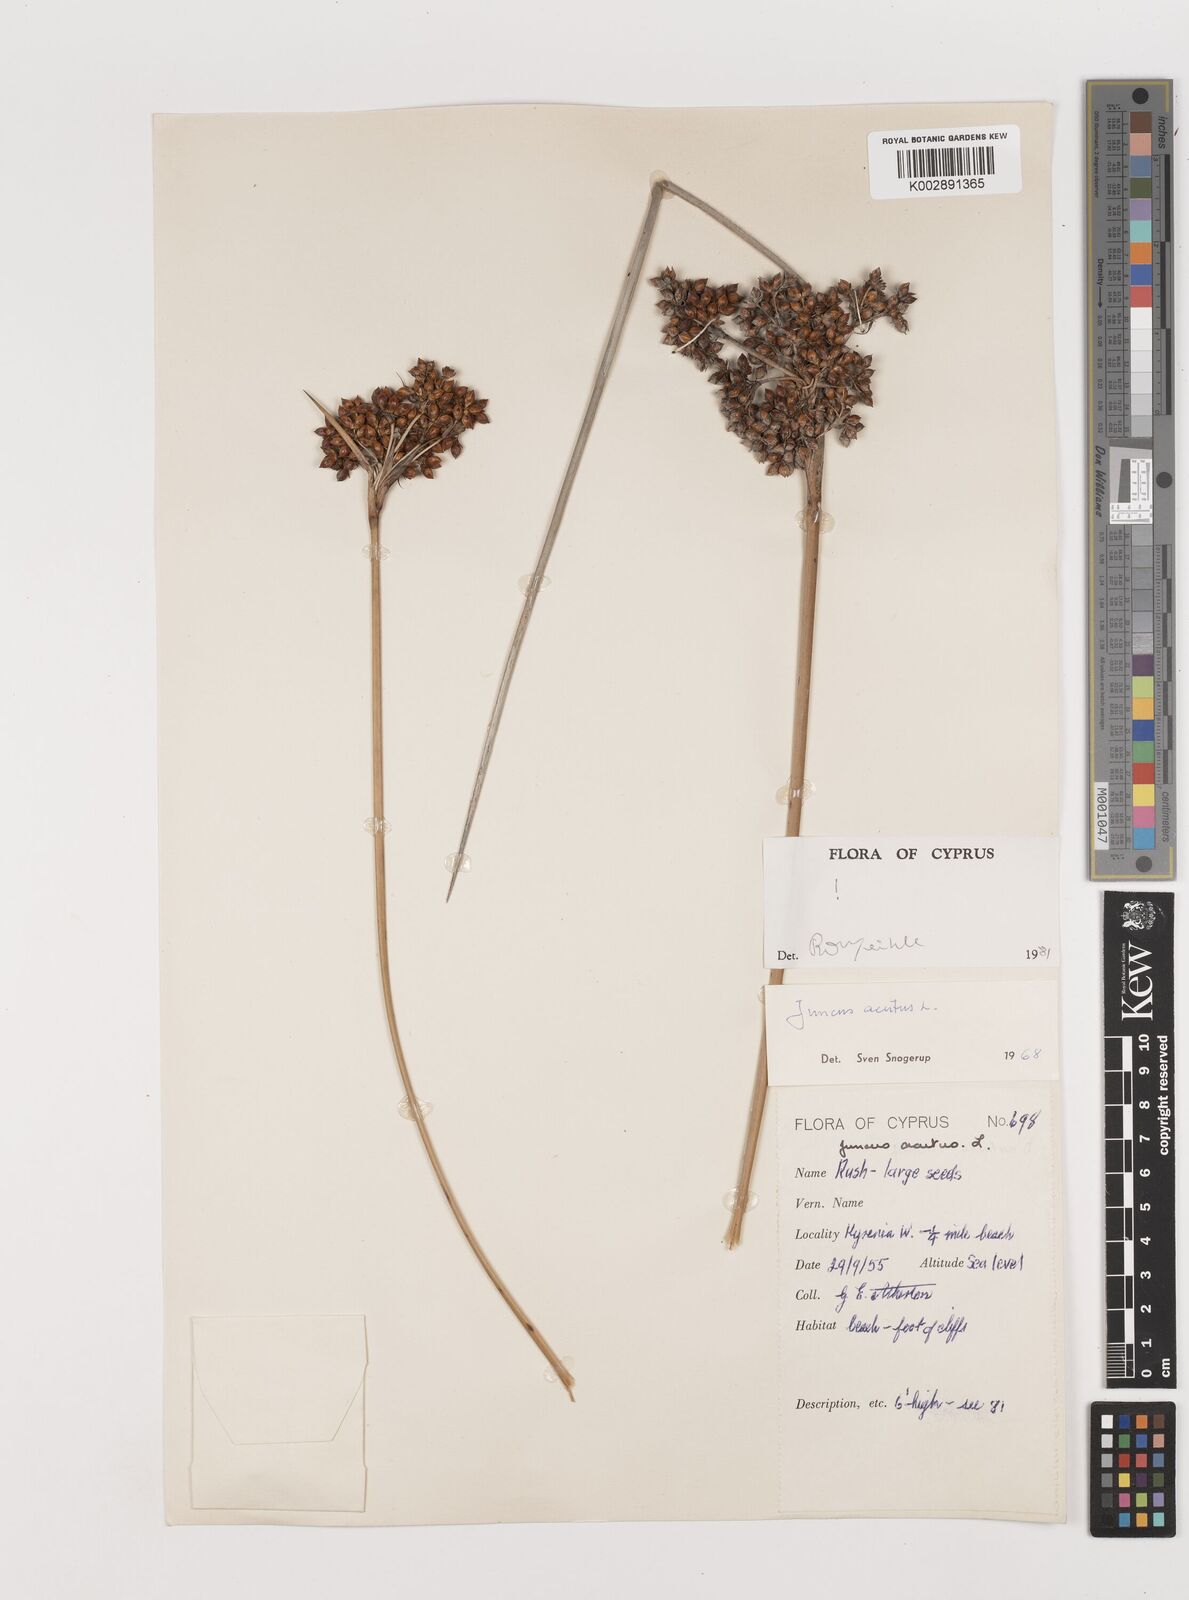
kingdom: Plantae
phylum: Tracheophyta
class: Liliopsida
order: Poales
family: Juncaceae
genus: Juncus
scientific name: Juncus acutus
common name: Sharp rush
